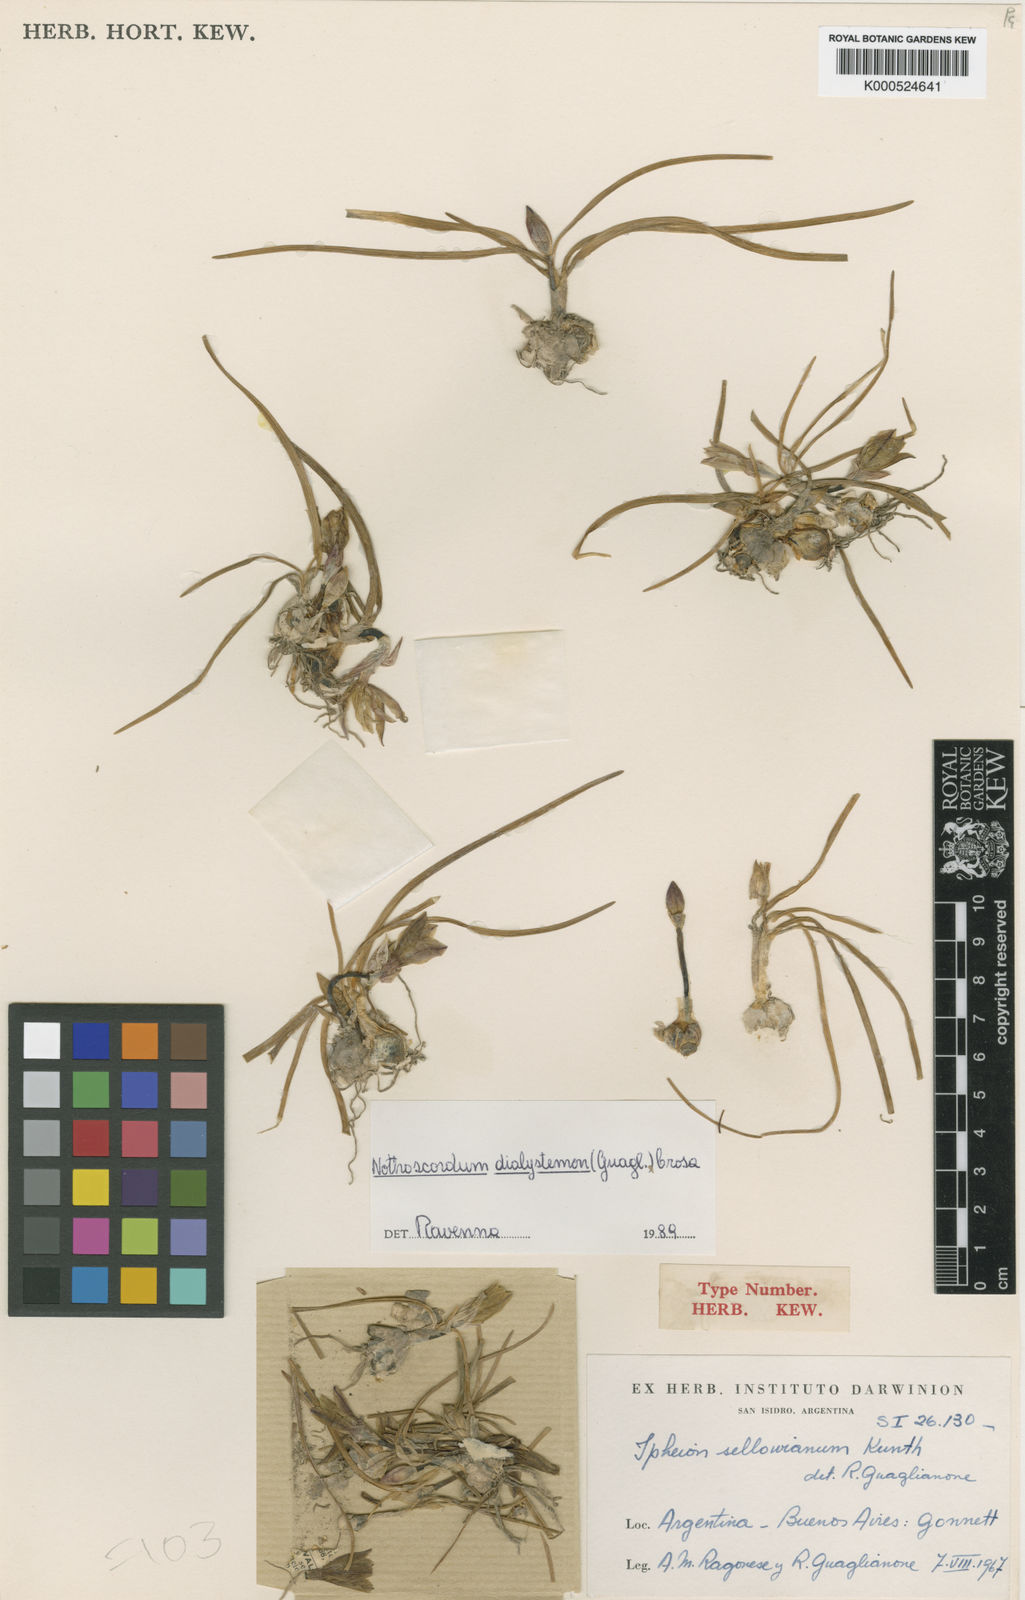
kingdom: Plantae
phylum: Tracheophyta
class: Liliopsida
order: Asparagales
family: Amaryllidaceae
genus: Nothoscordum
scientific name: Nothoscordum dialystemon
